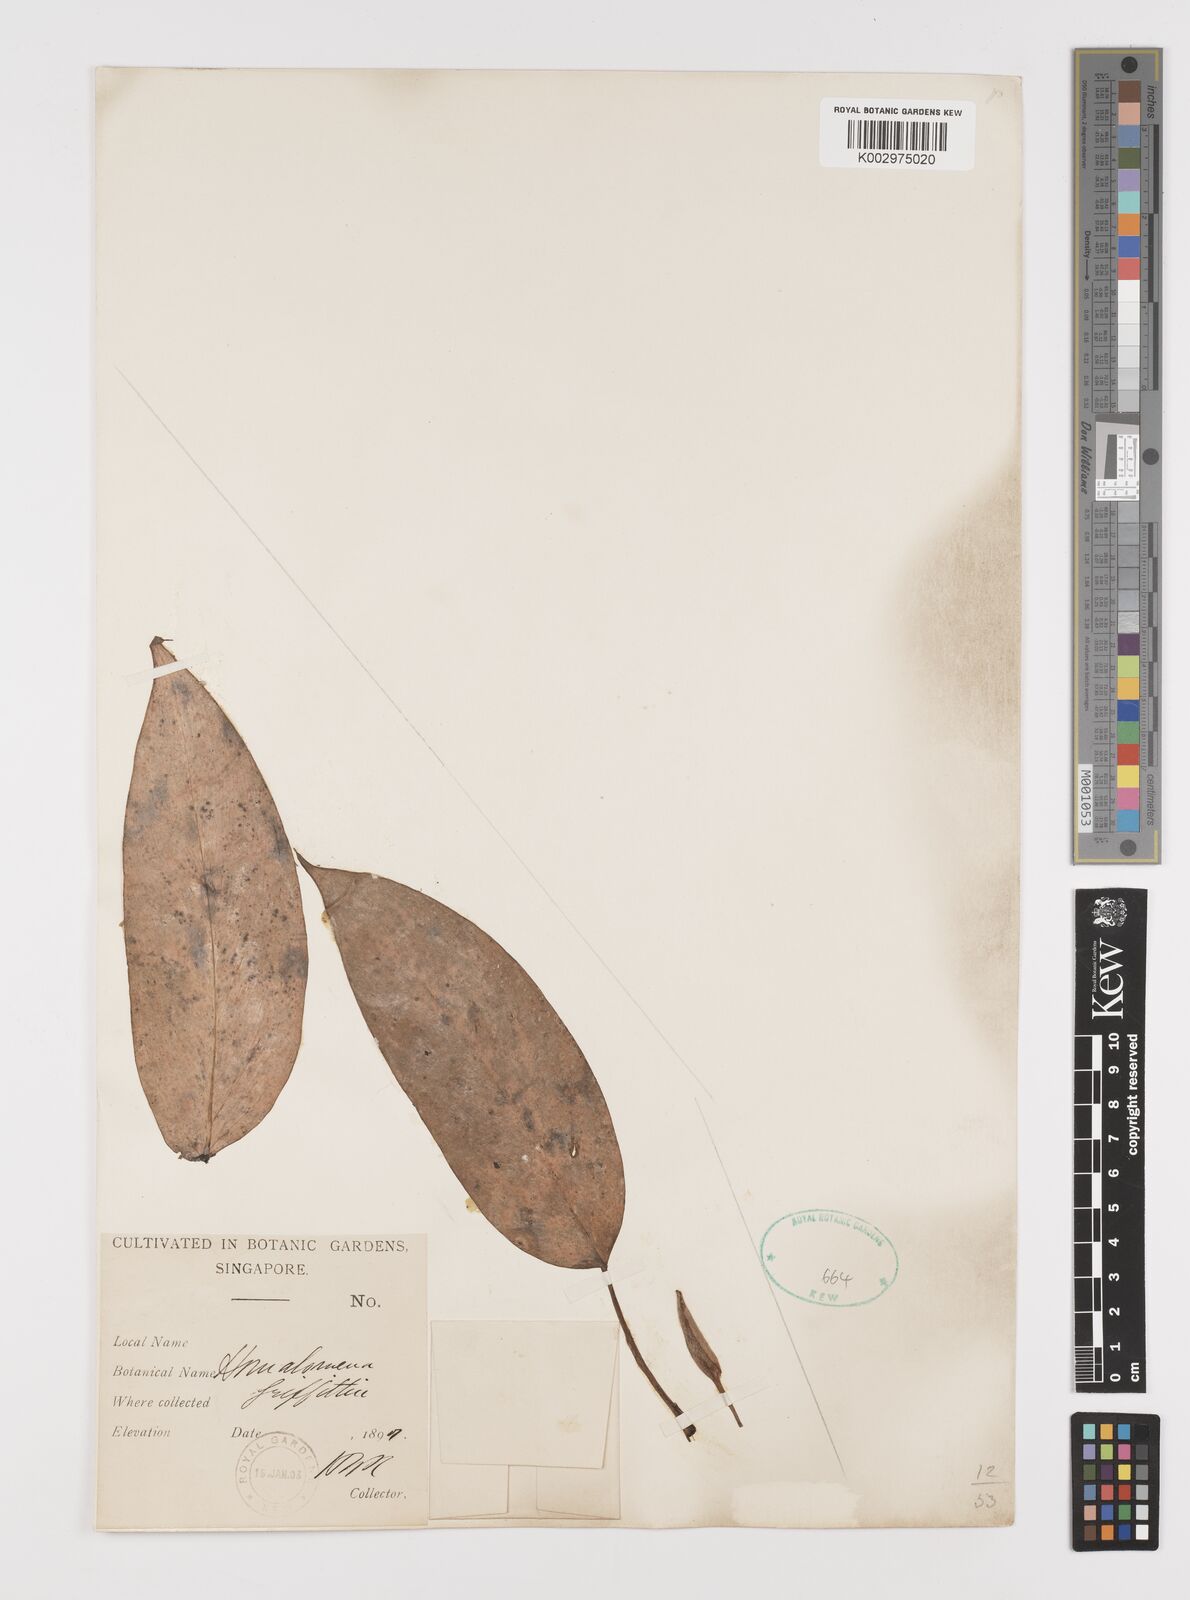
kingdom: Plantae
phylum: Tracheophyta
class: Liliopsida
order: Alismatales
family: Araceae
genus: Homalomena
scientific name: Homalomena griffithii
